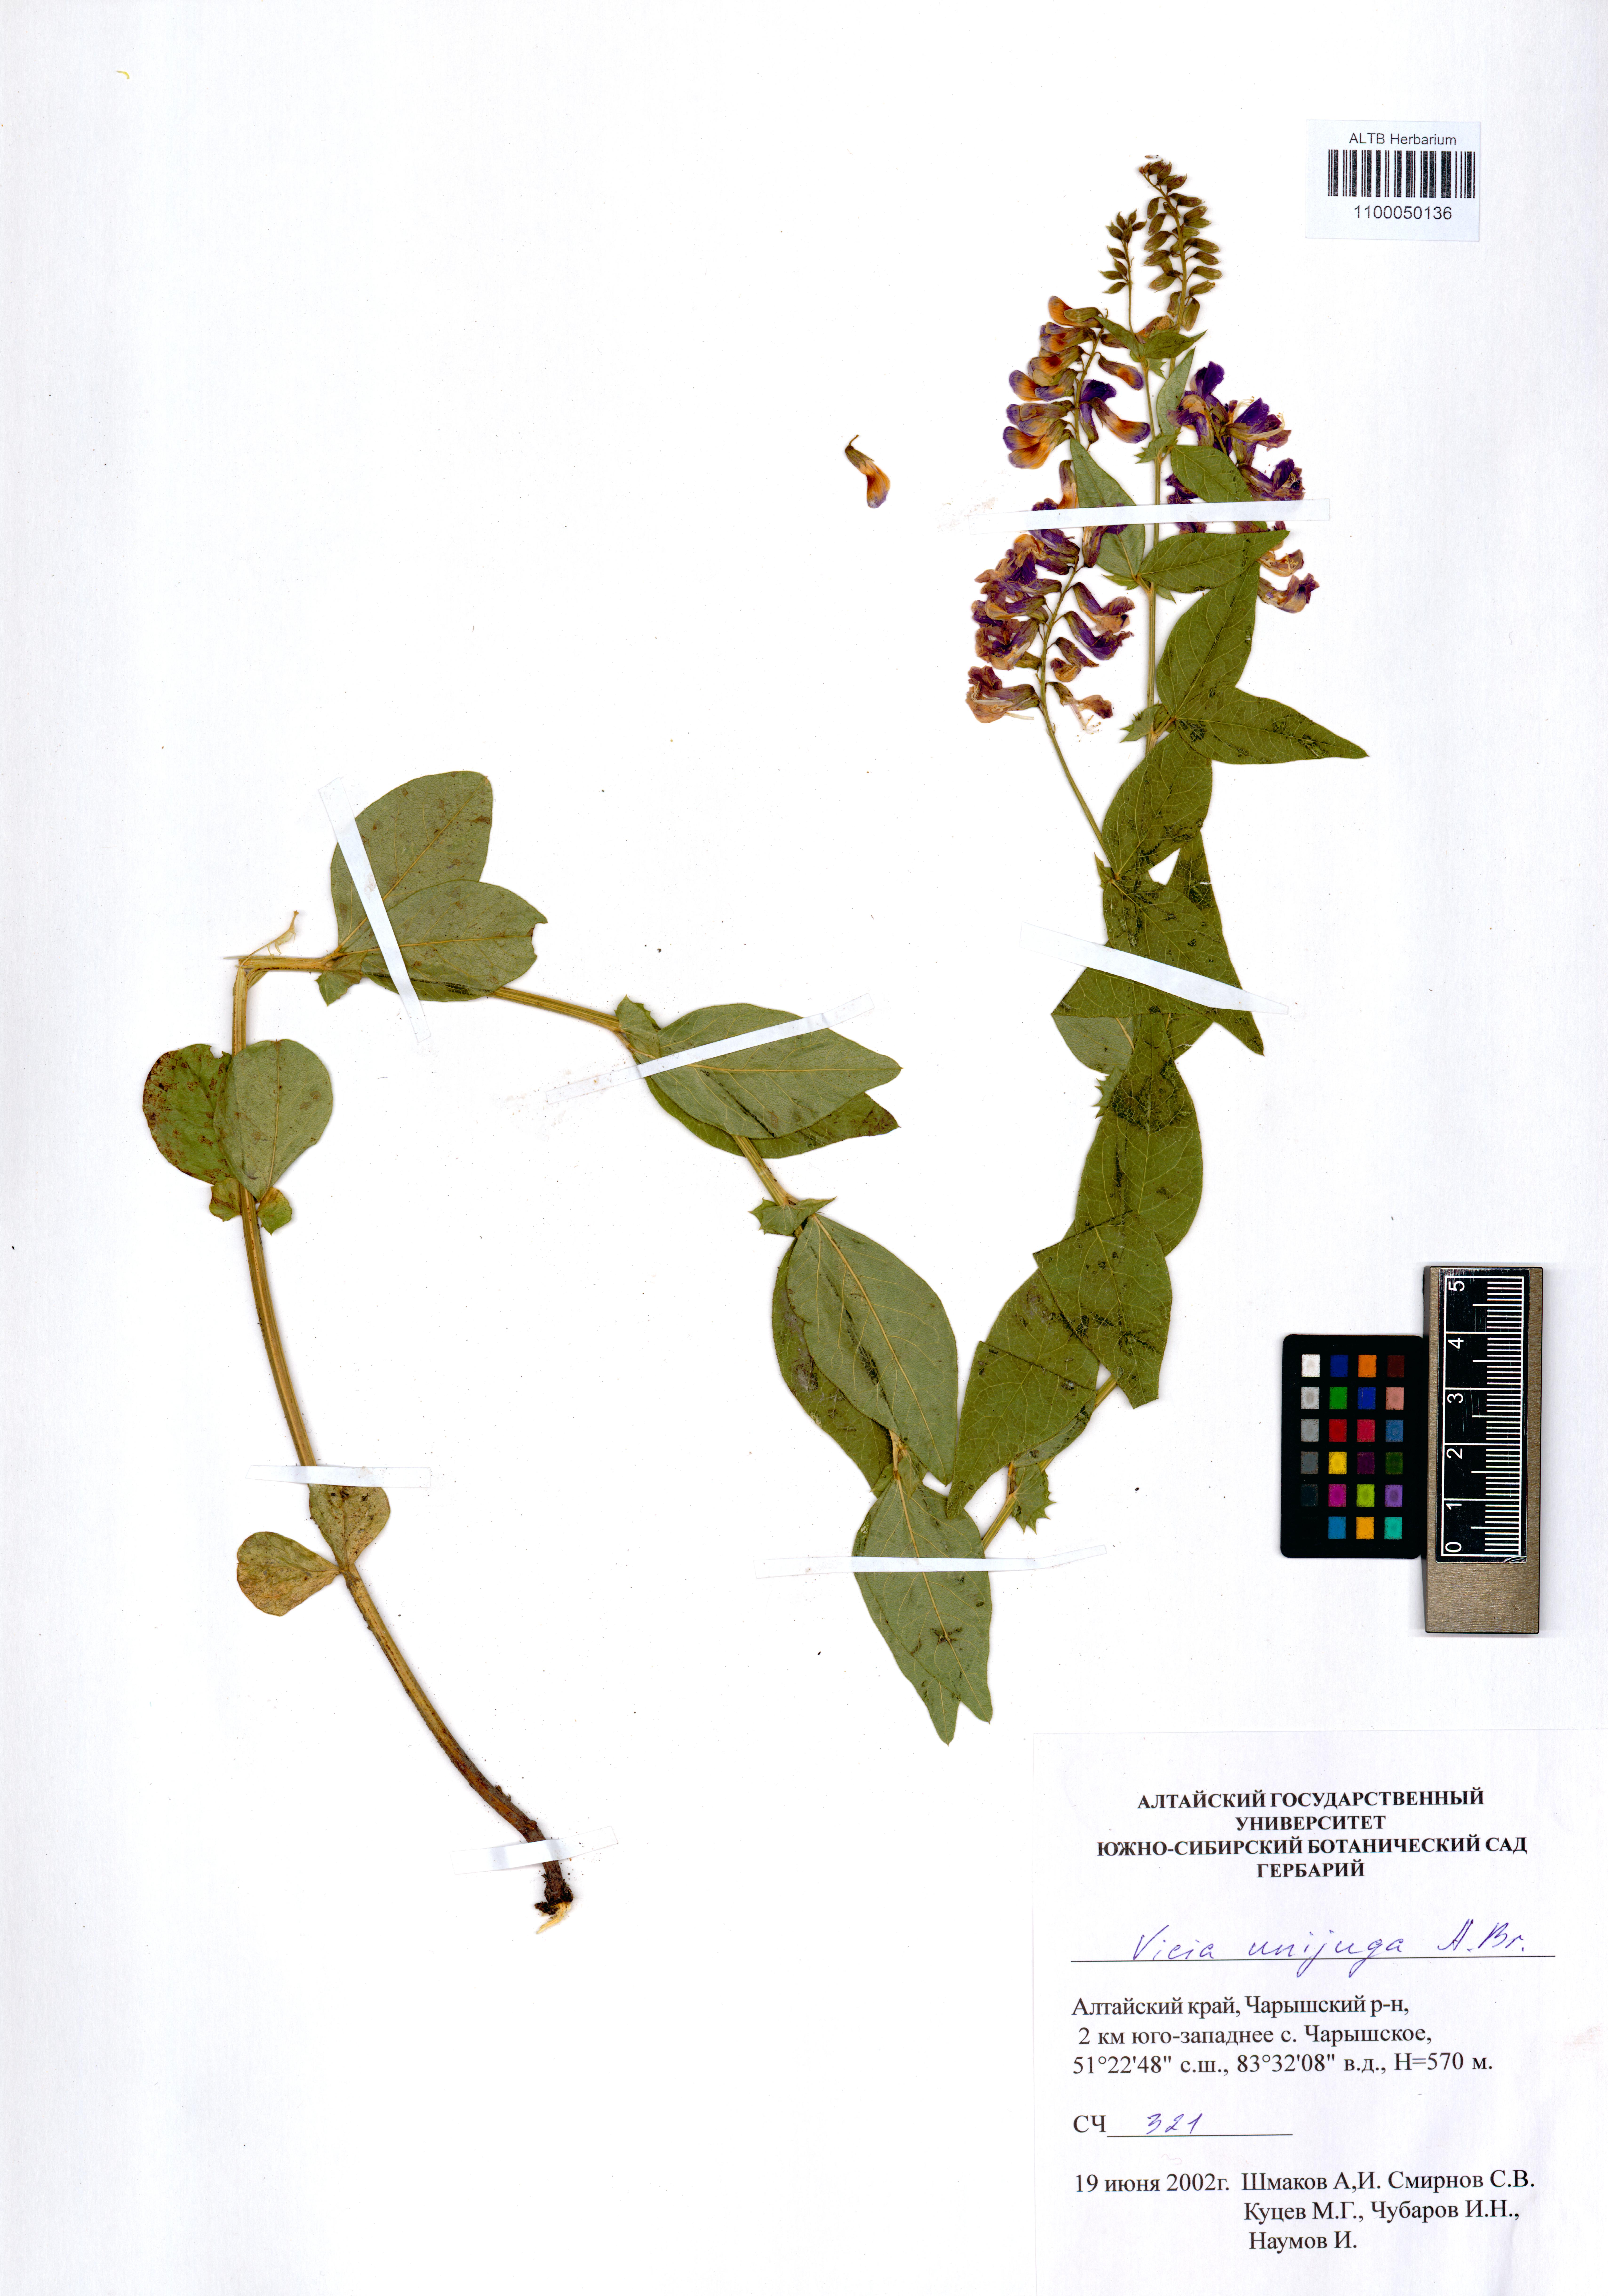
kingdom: Plantae
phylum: Tracheophyta
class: Magnoliopsida
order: Fabales
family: Fabaceae
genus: Vicia
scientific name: Vicia unijuga
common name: Two-leaf vetch
